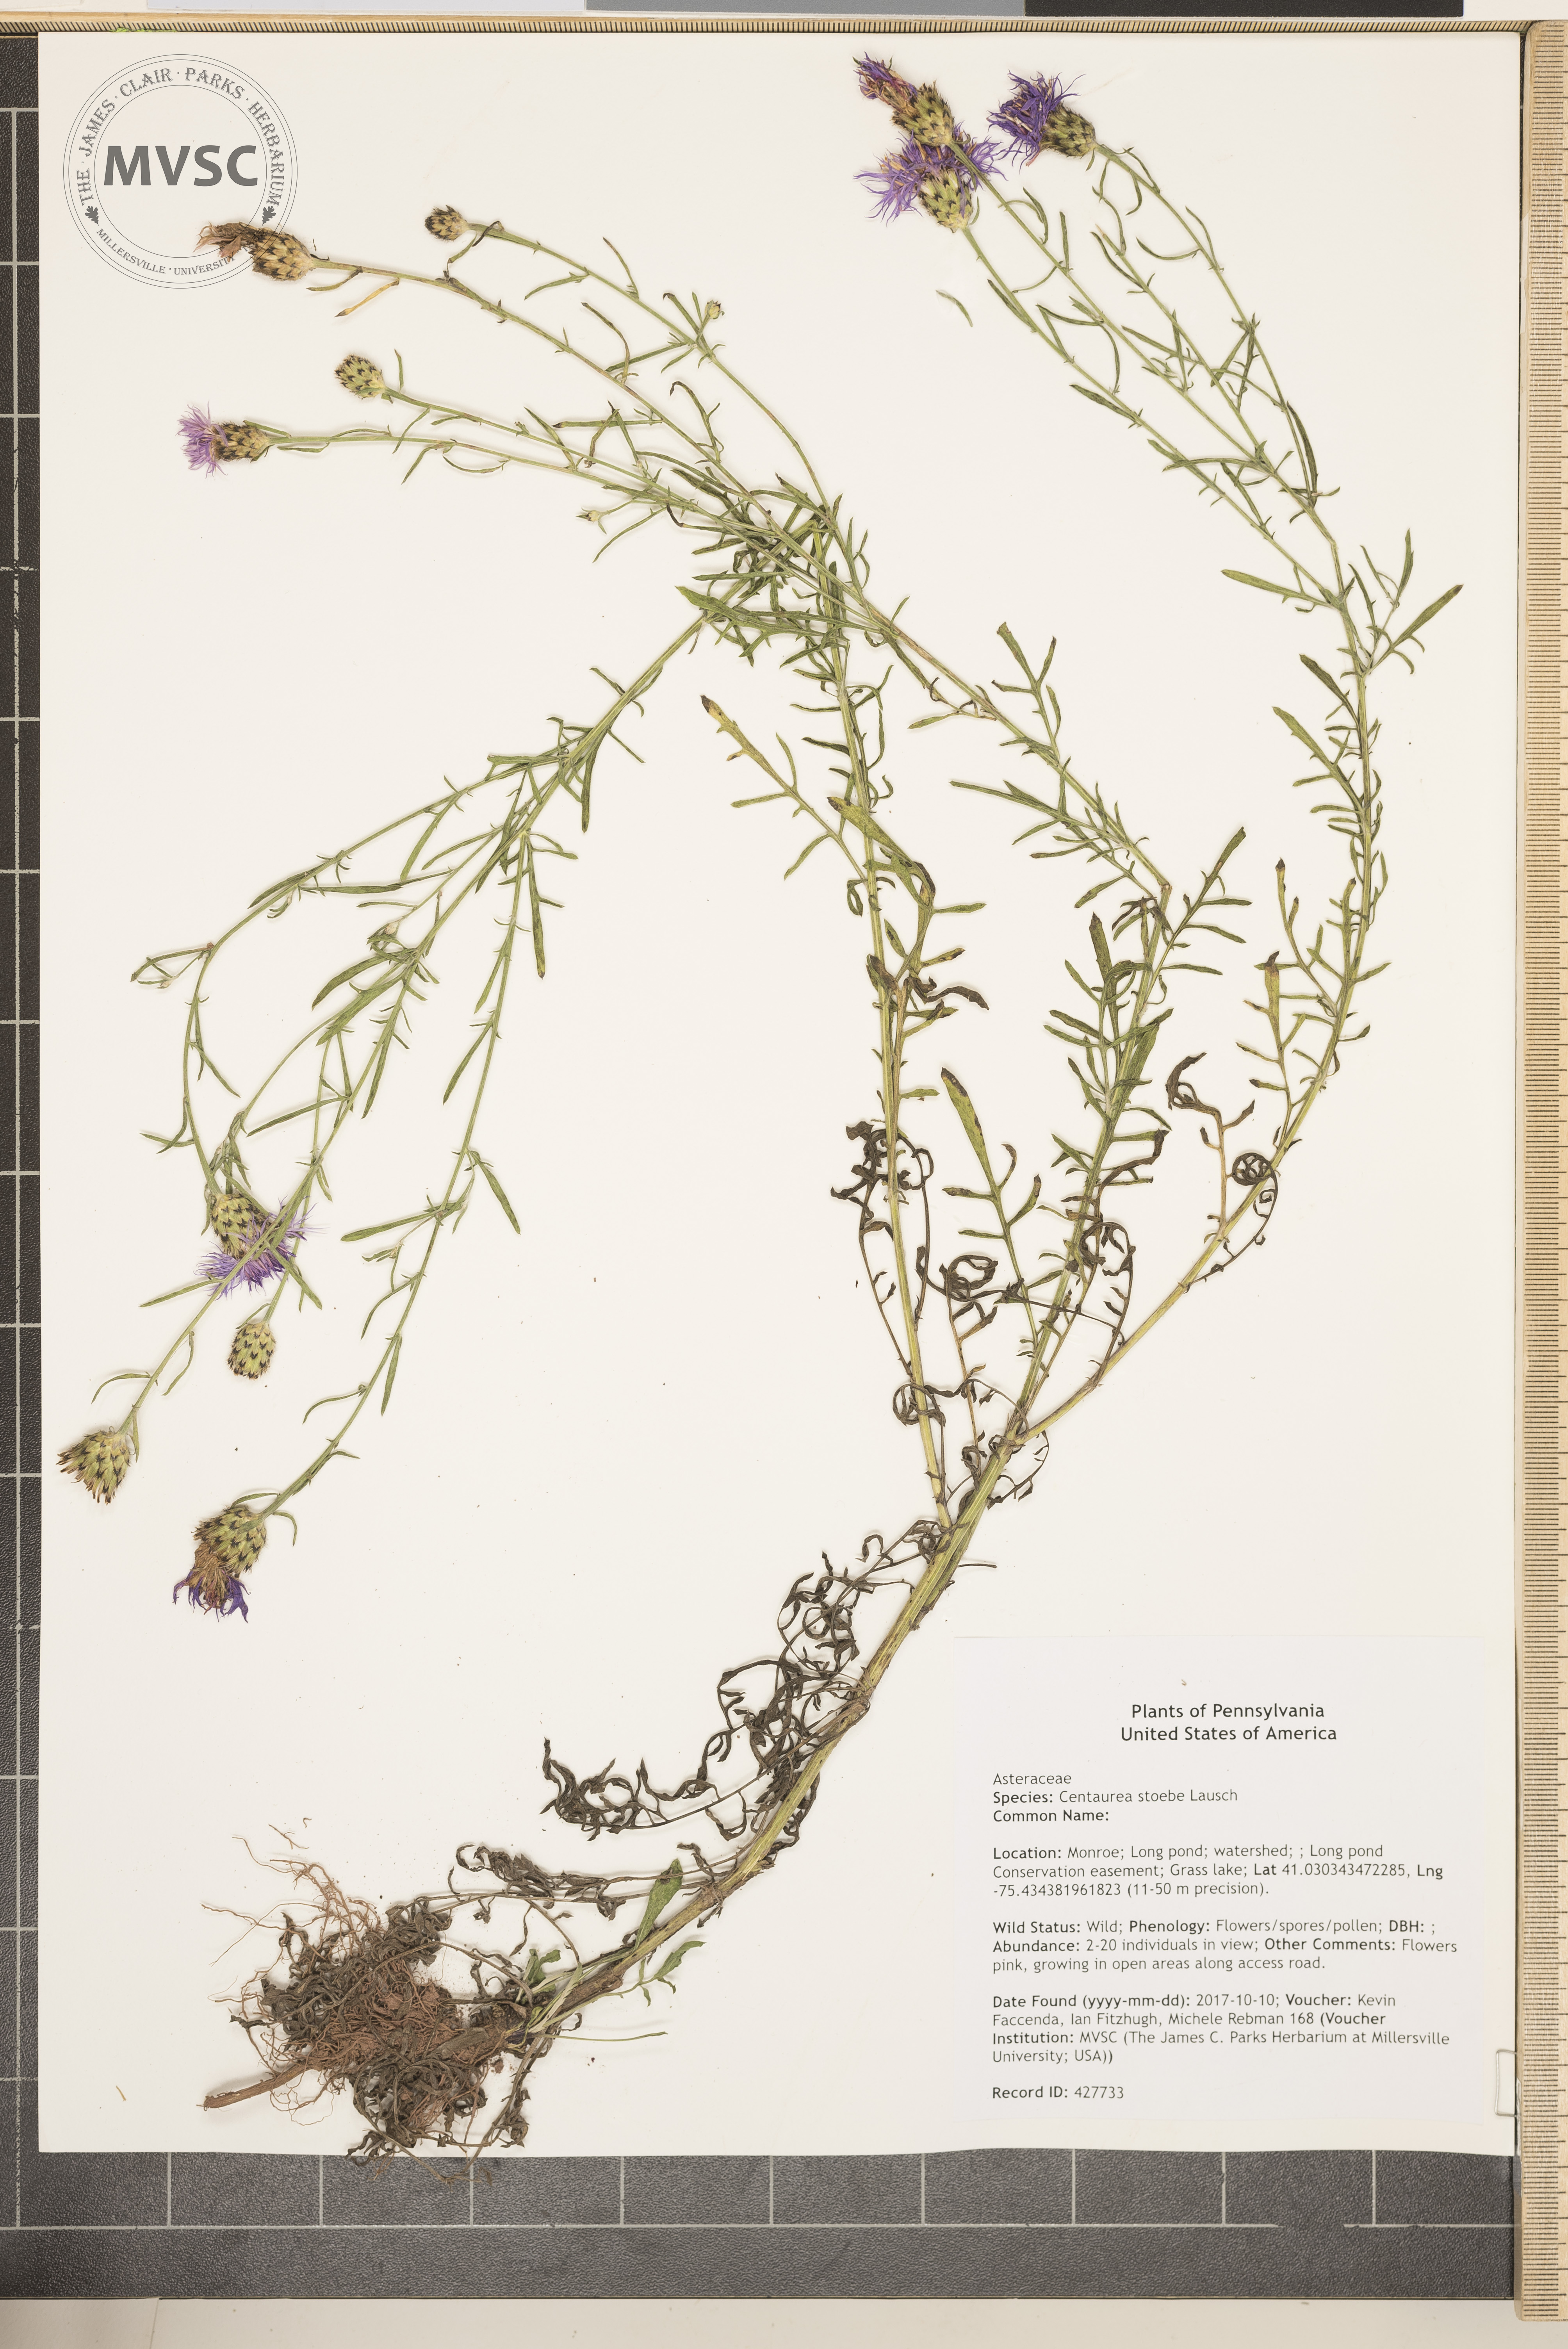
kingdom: Plantae
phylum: Tracheophyta
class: Magnoliopsida
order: Asterales
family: Asteraceae
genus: Centaurea
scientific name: Centaurea stoebe
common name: Spotted knapweed
